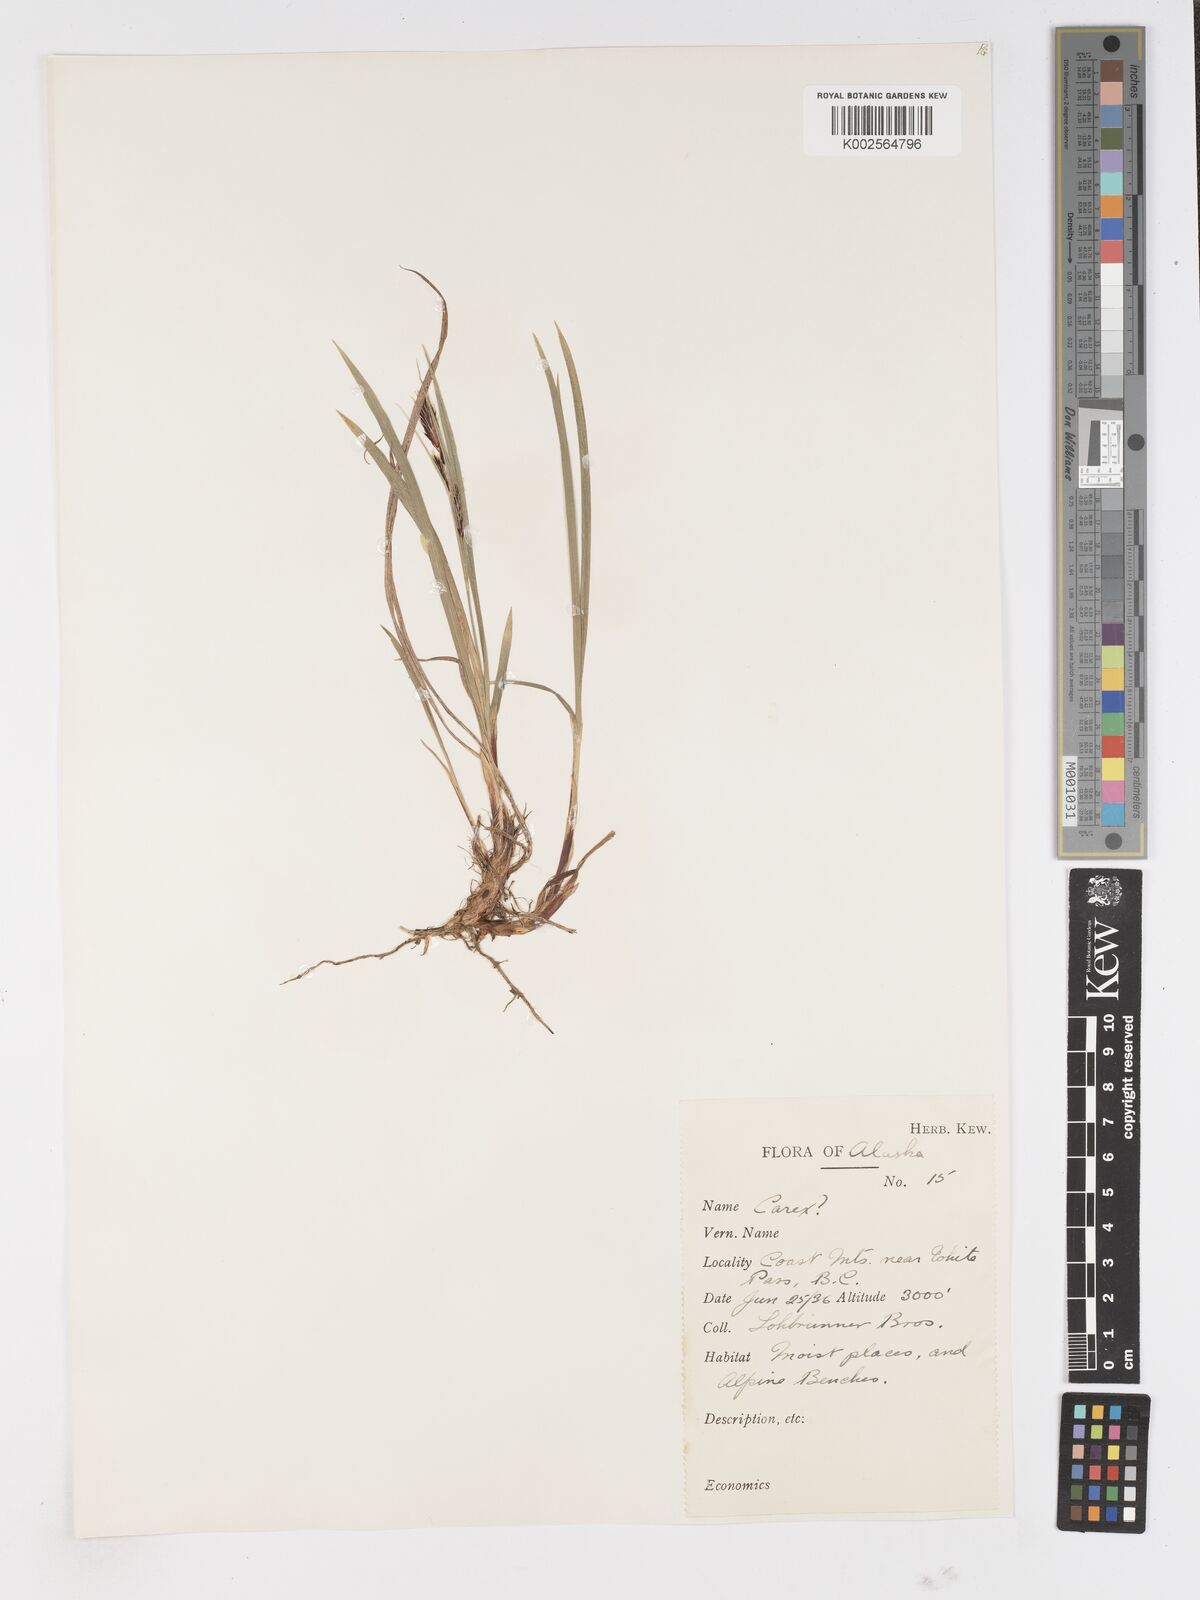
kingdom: Plantae
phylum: Tracheophyta
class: Liliopsida
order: Poales
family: Cyperaceae
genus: Carex
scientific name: Carex
